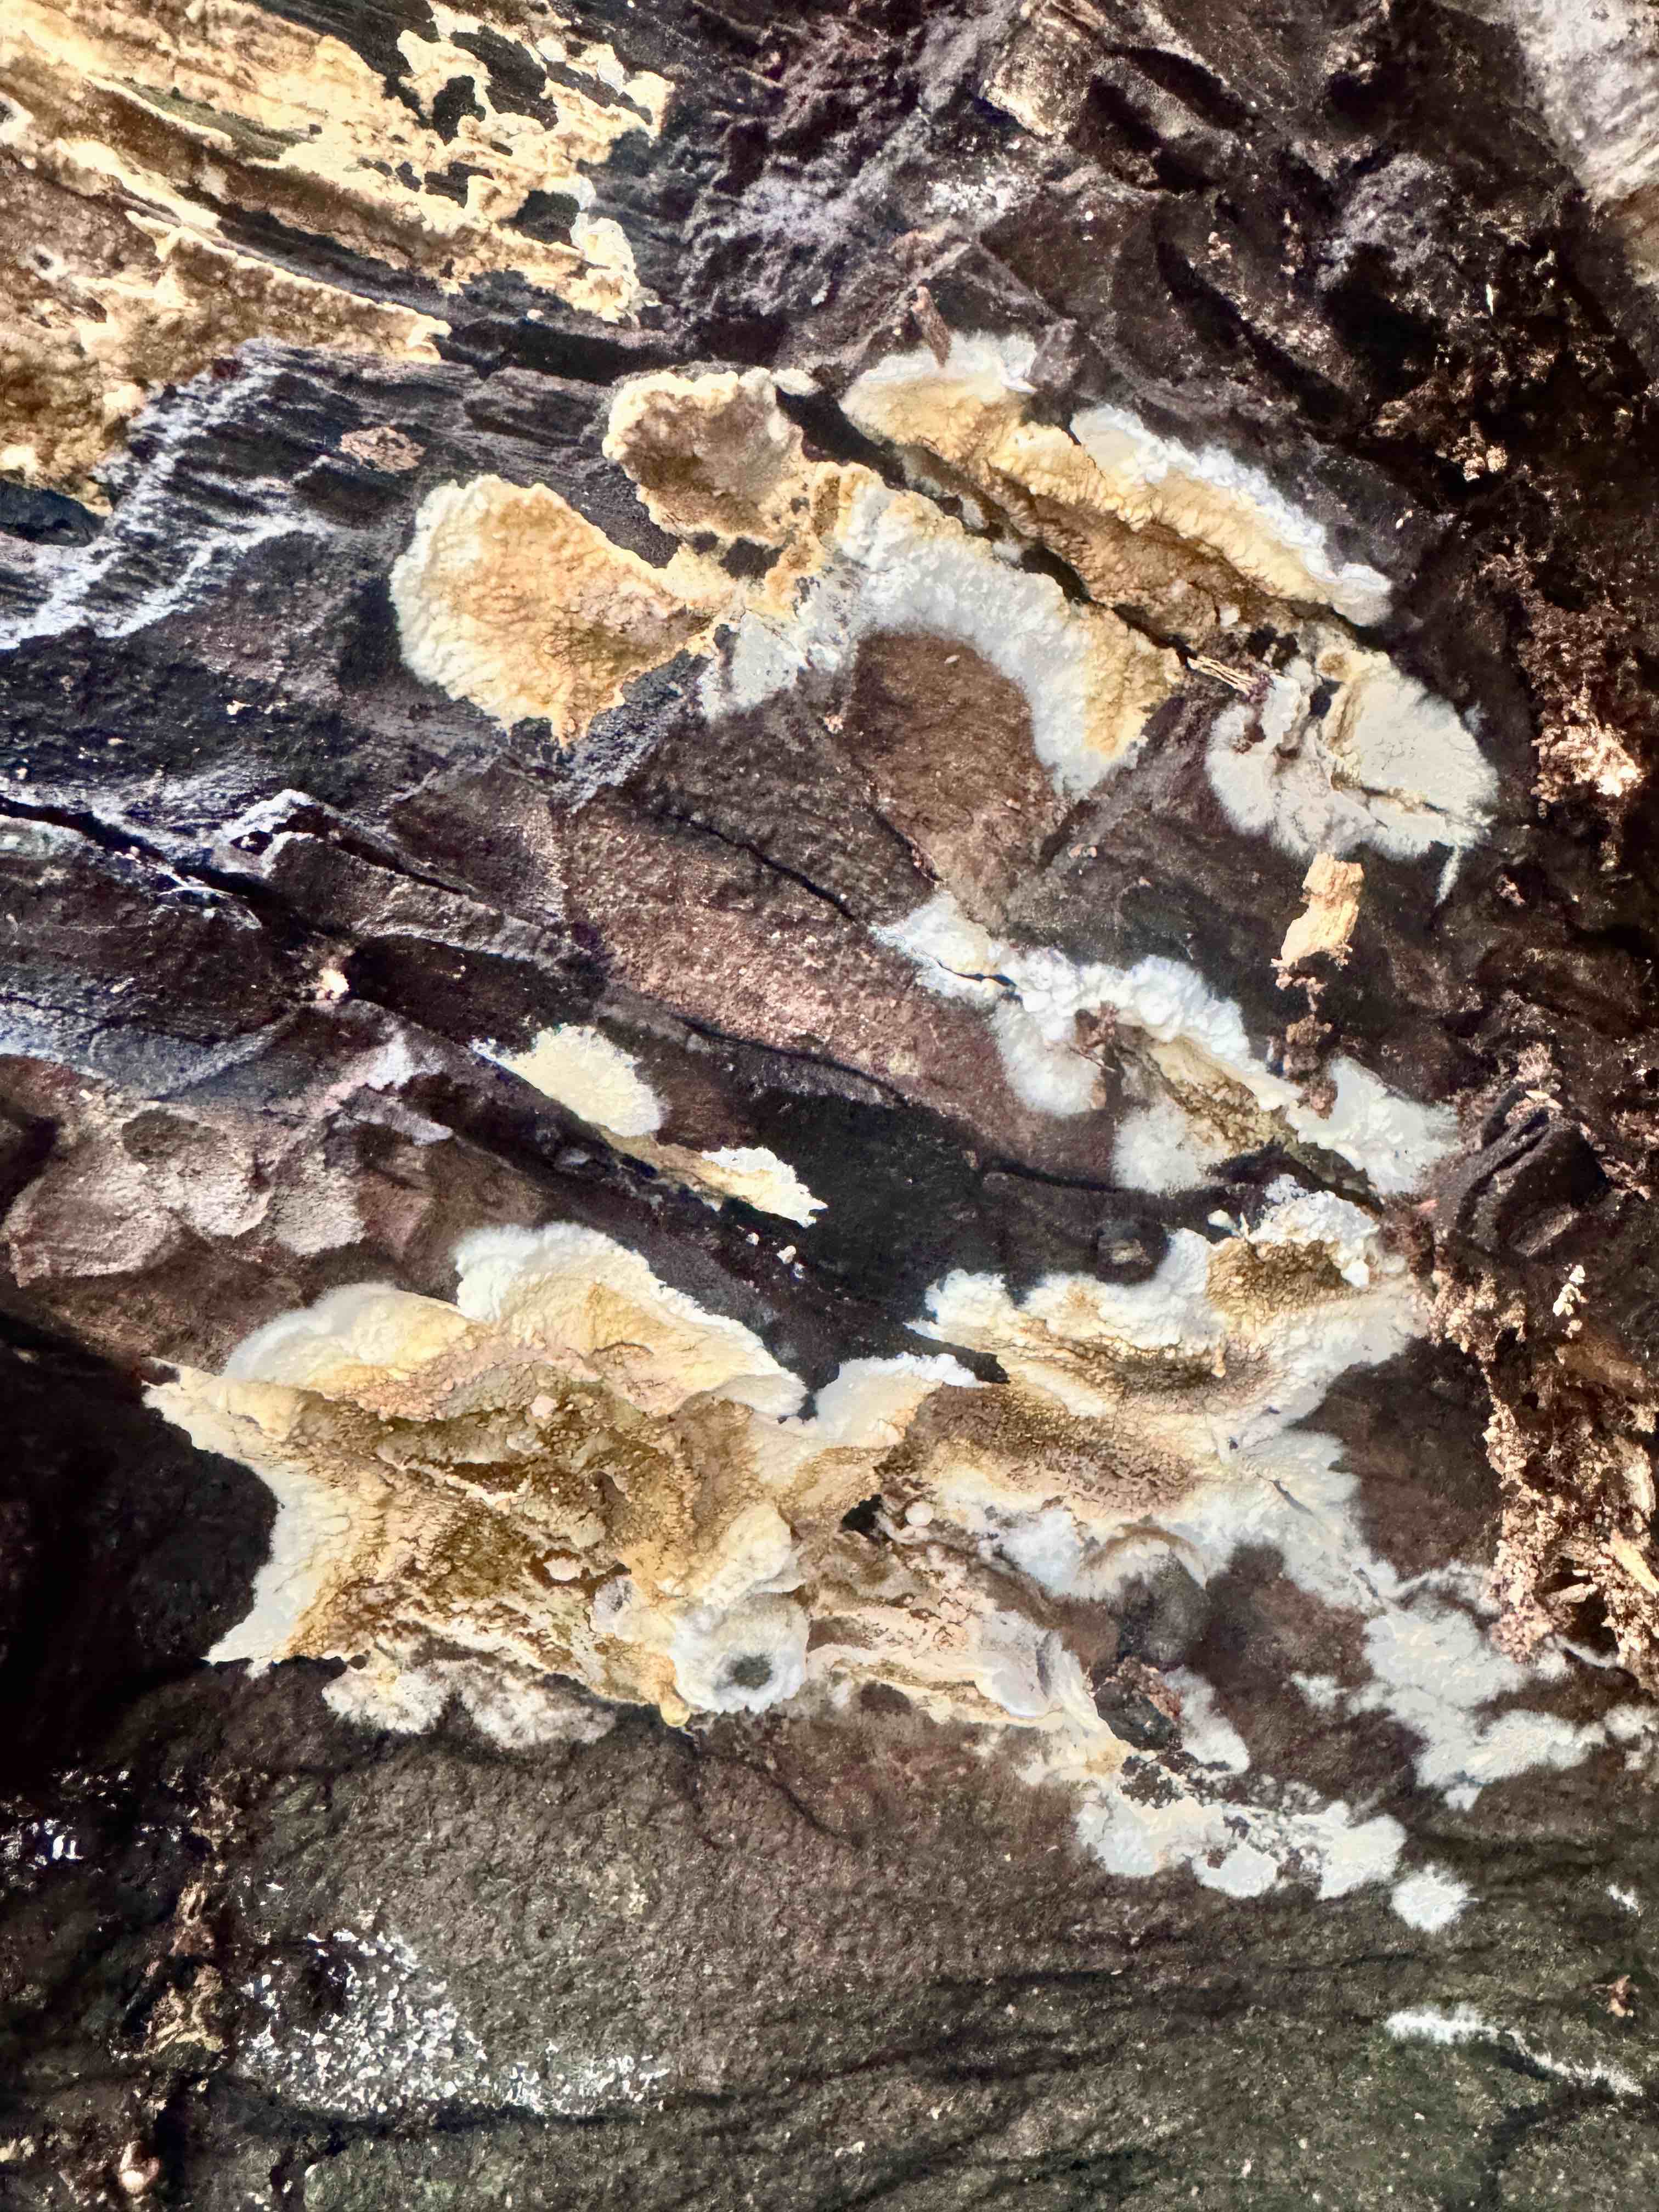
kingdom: Fungi
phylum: Basidiomycota
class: Agaricomycetes
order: Boletales
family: Coniophoraceae
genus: Coniophora
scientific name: Coniophora puteana
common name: gul tømmersvamp
